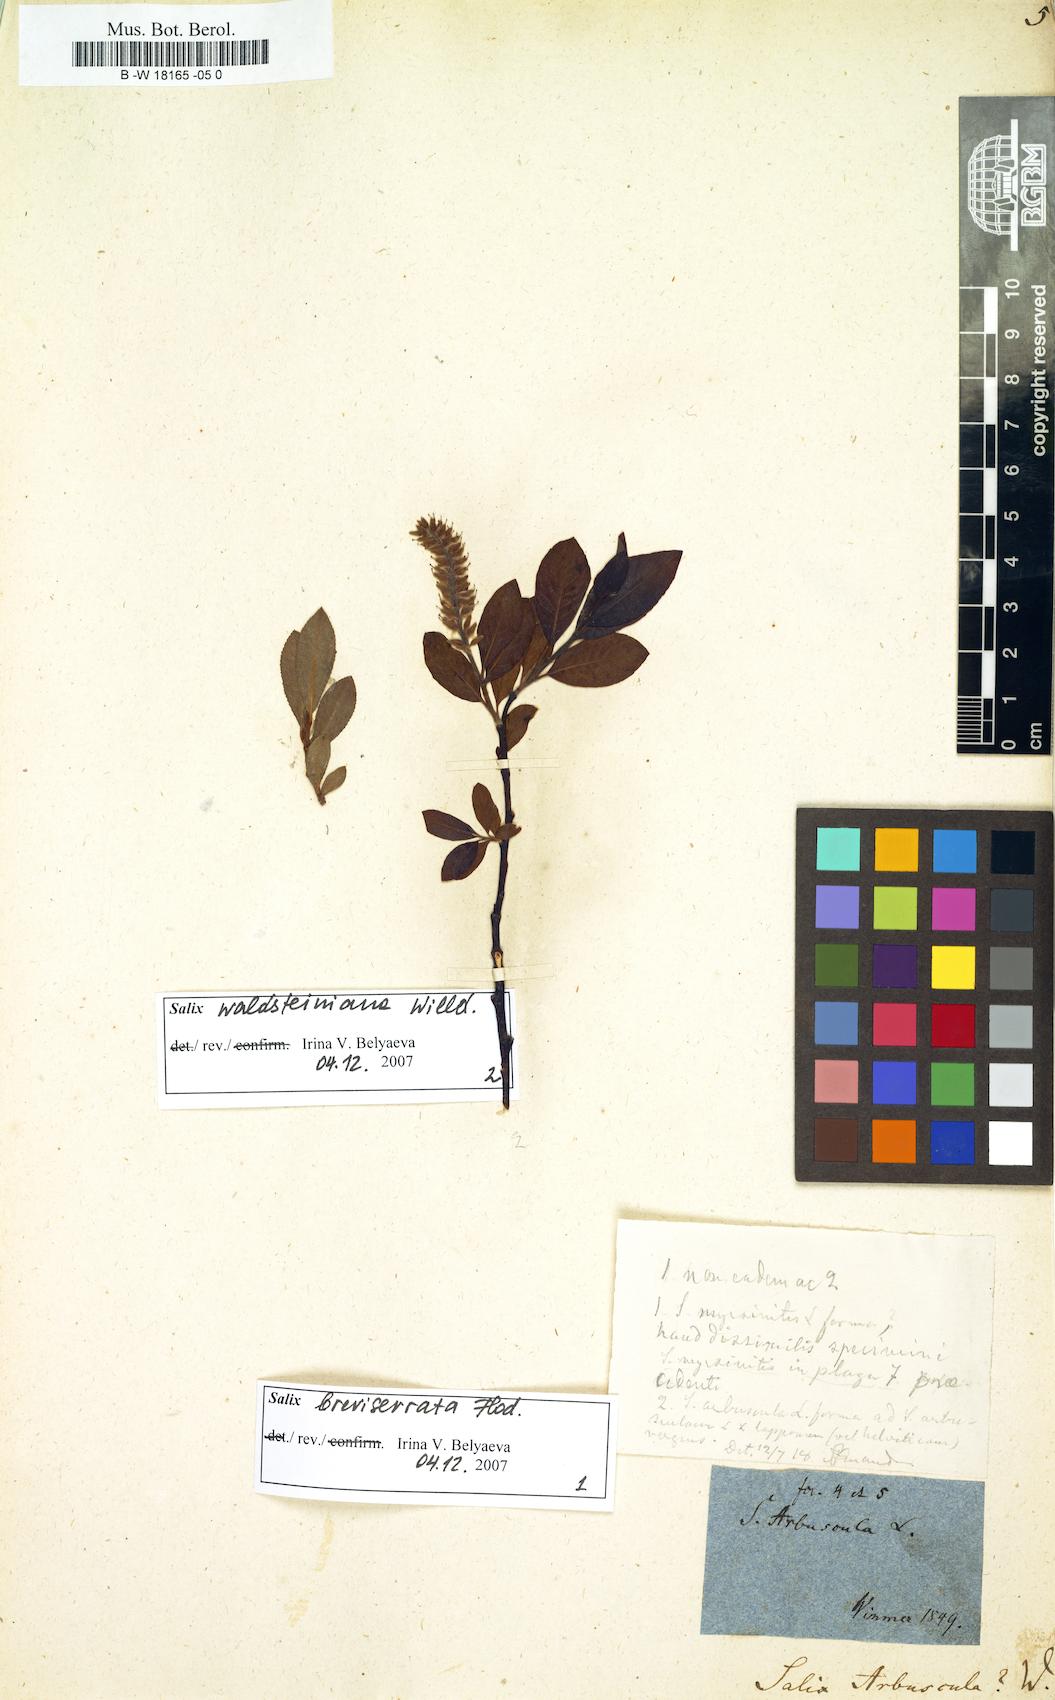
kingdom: Plantae
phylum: Tracheophyta
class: Magnoliopsida
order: Malpighiales
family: Salicaceae
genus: Salix
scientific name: Salix arbuscula
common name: Mountain willow
